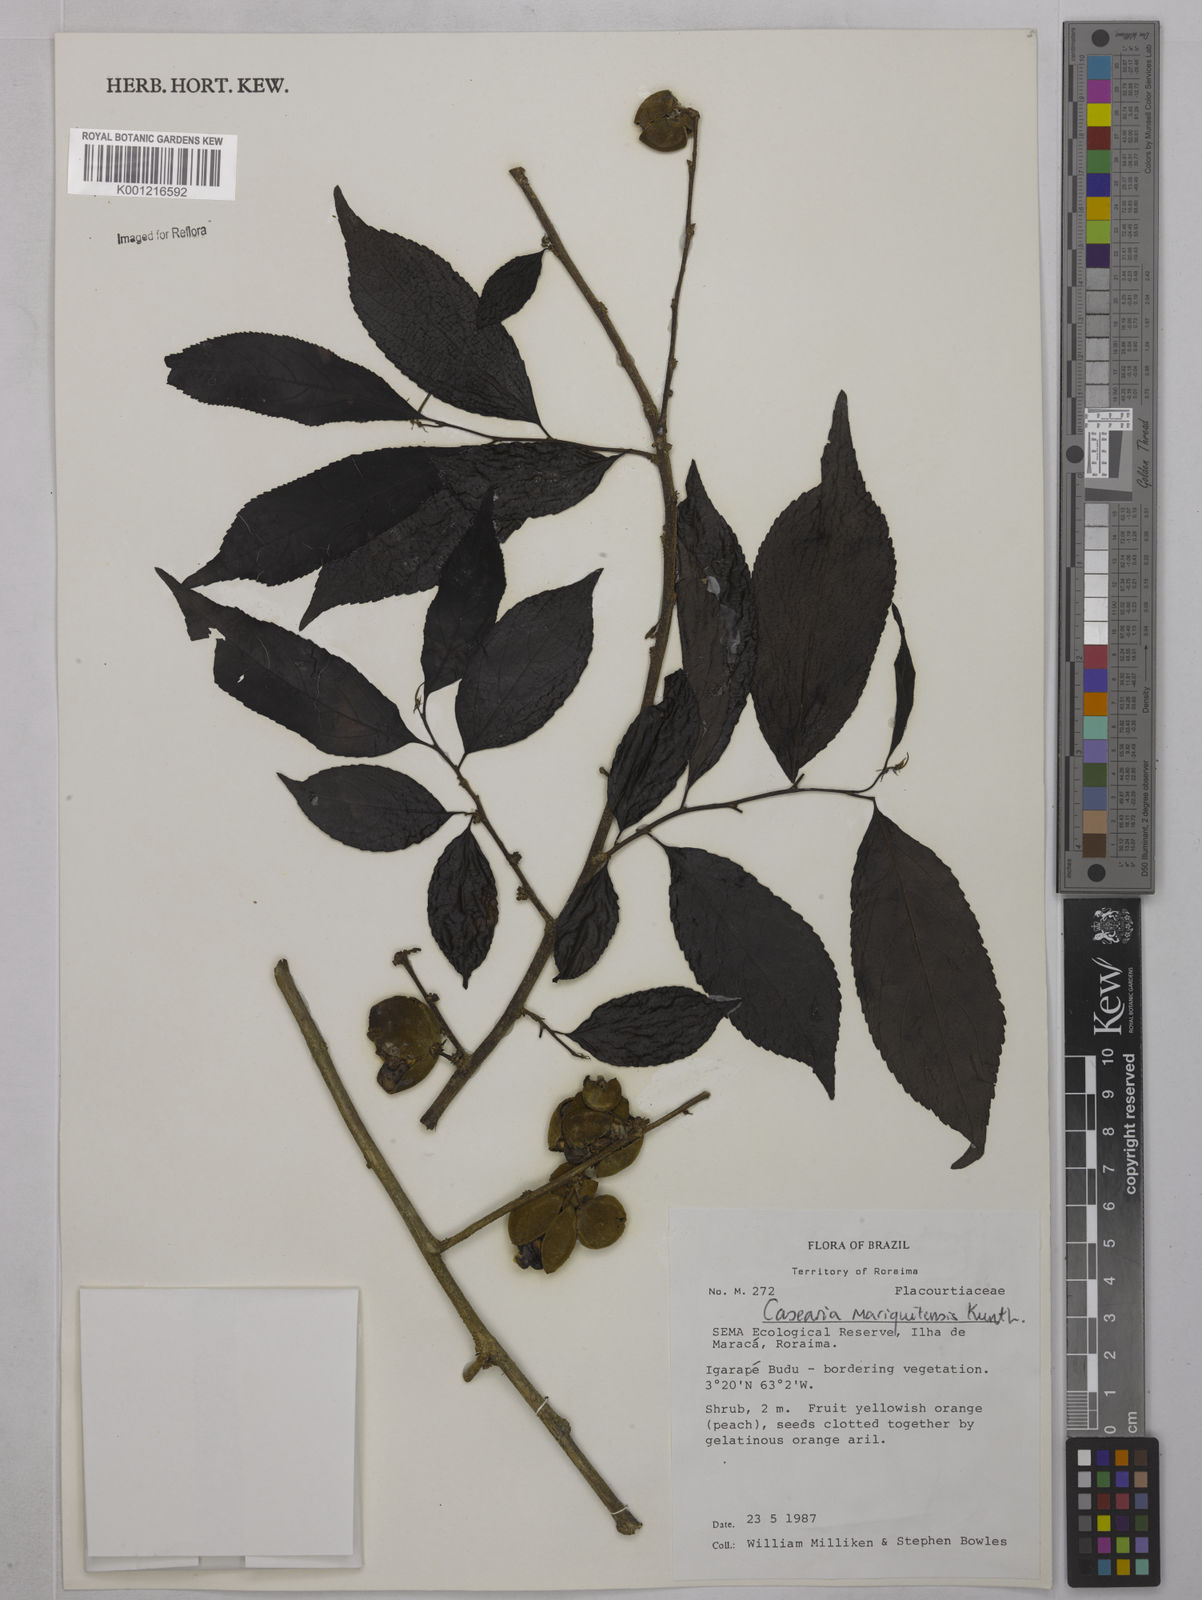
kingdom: Plantae
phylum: Tracheophyta
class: Magnoliopsida
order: Malpighiales
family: Salicaceae
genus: Casearia
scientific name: Casearia mariquitensis
